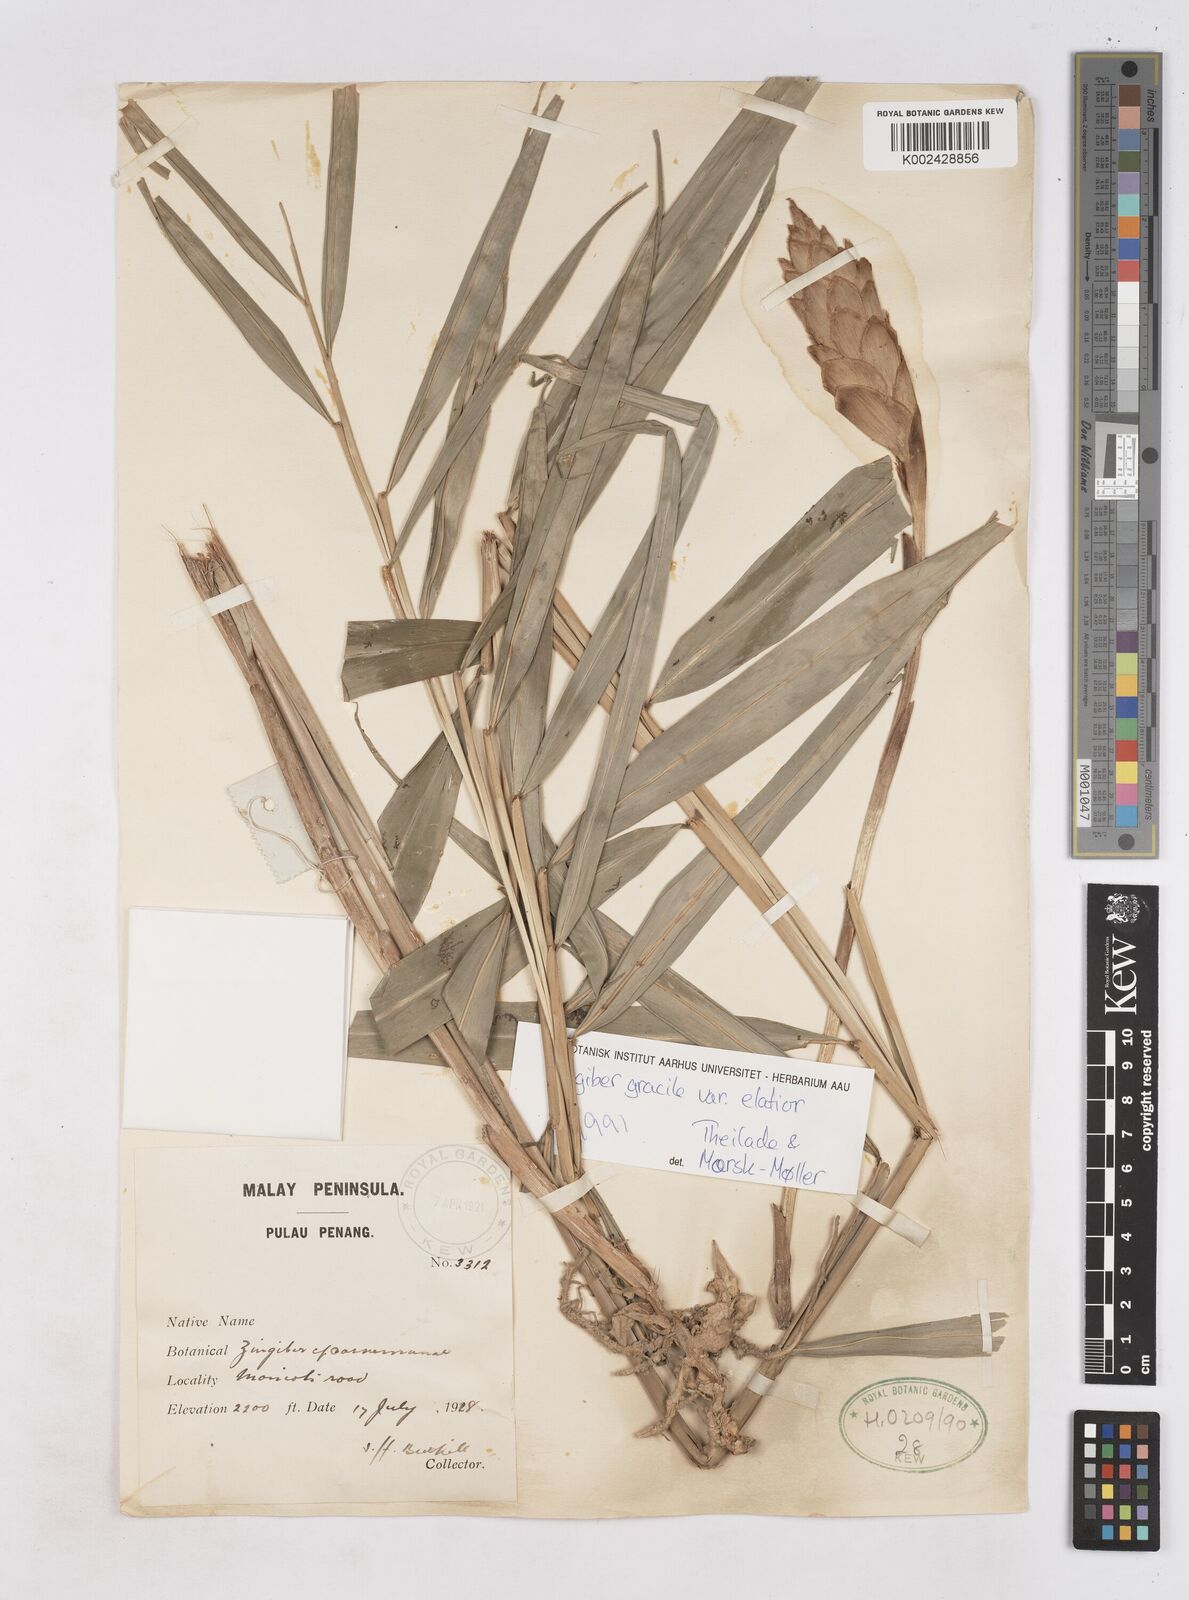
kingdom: Plantae
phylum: Tracheophyta
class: Liliopsida
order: Zingiberales
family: Zingiberaceae
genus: Zingiber
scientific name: Zingiber gracile
